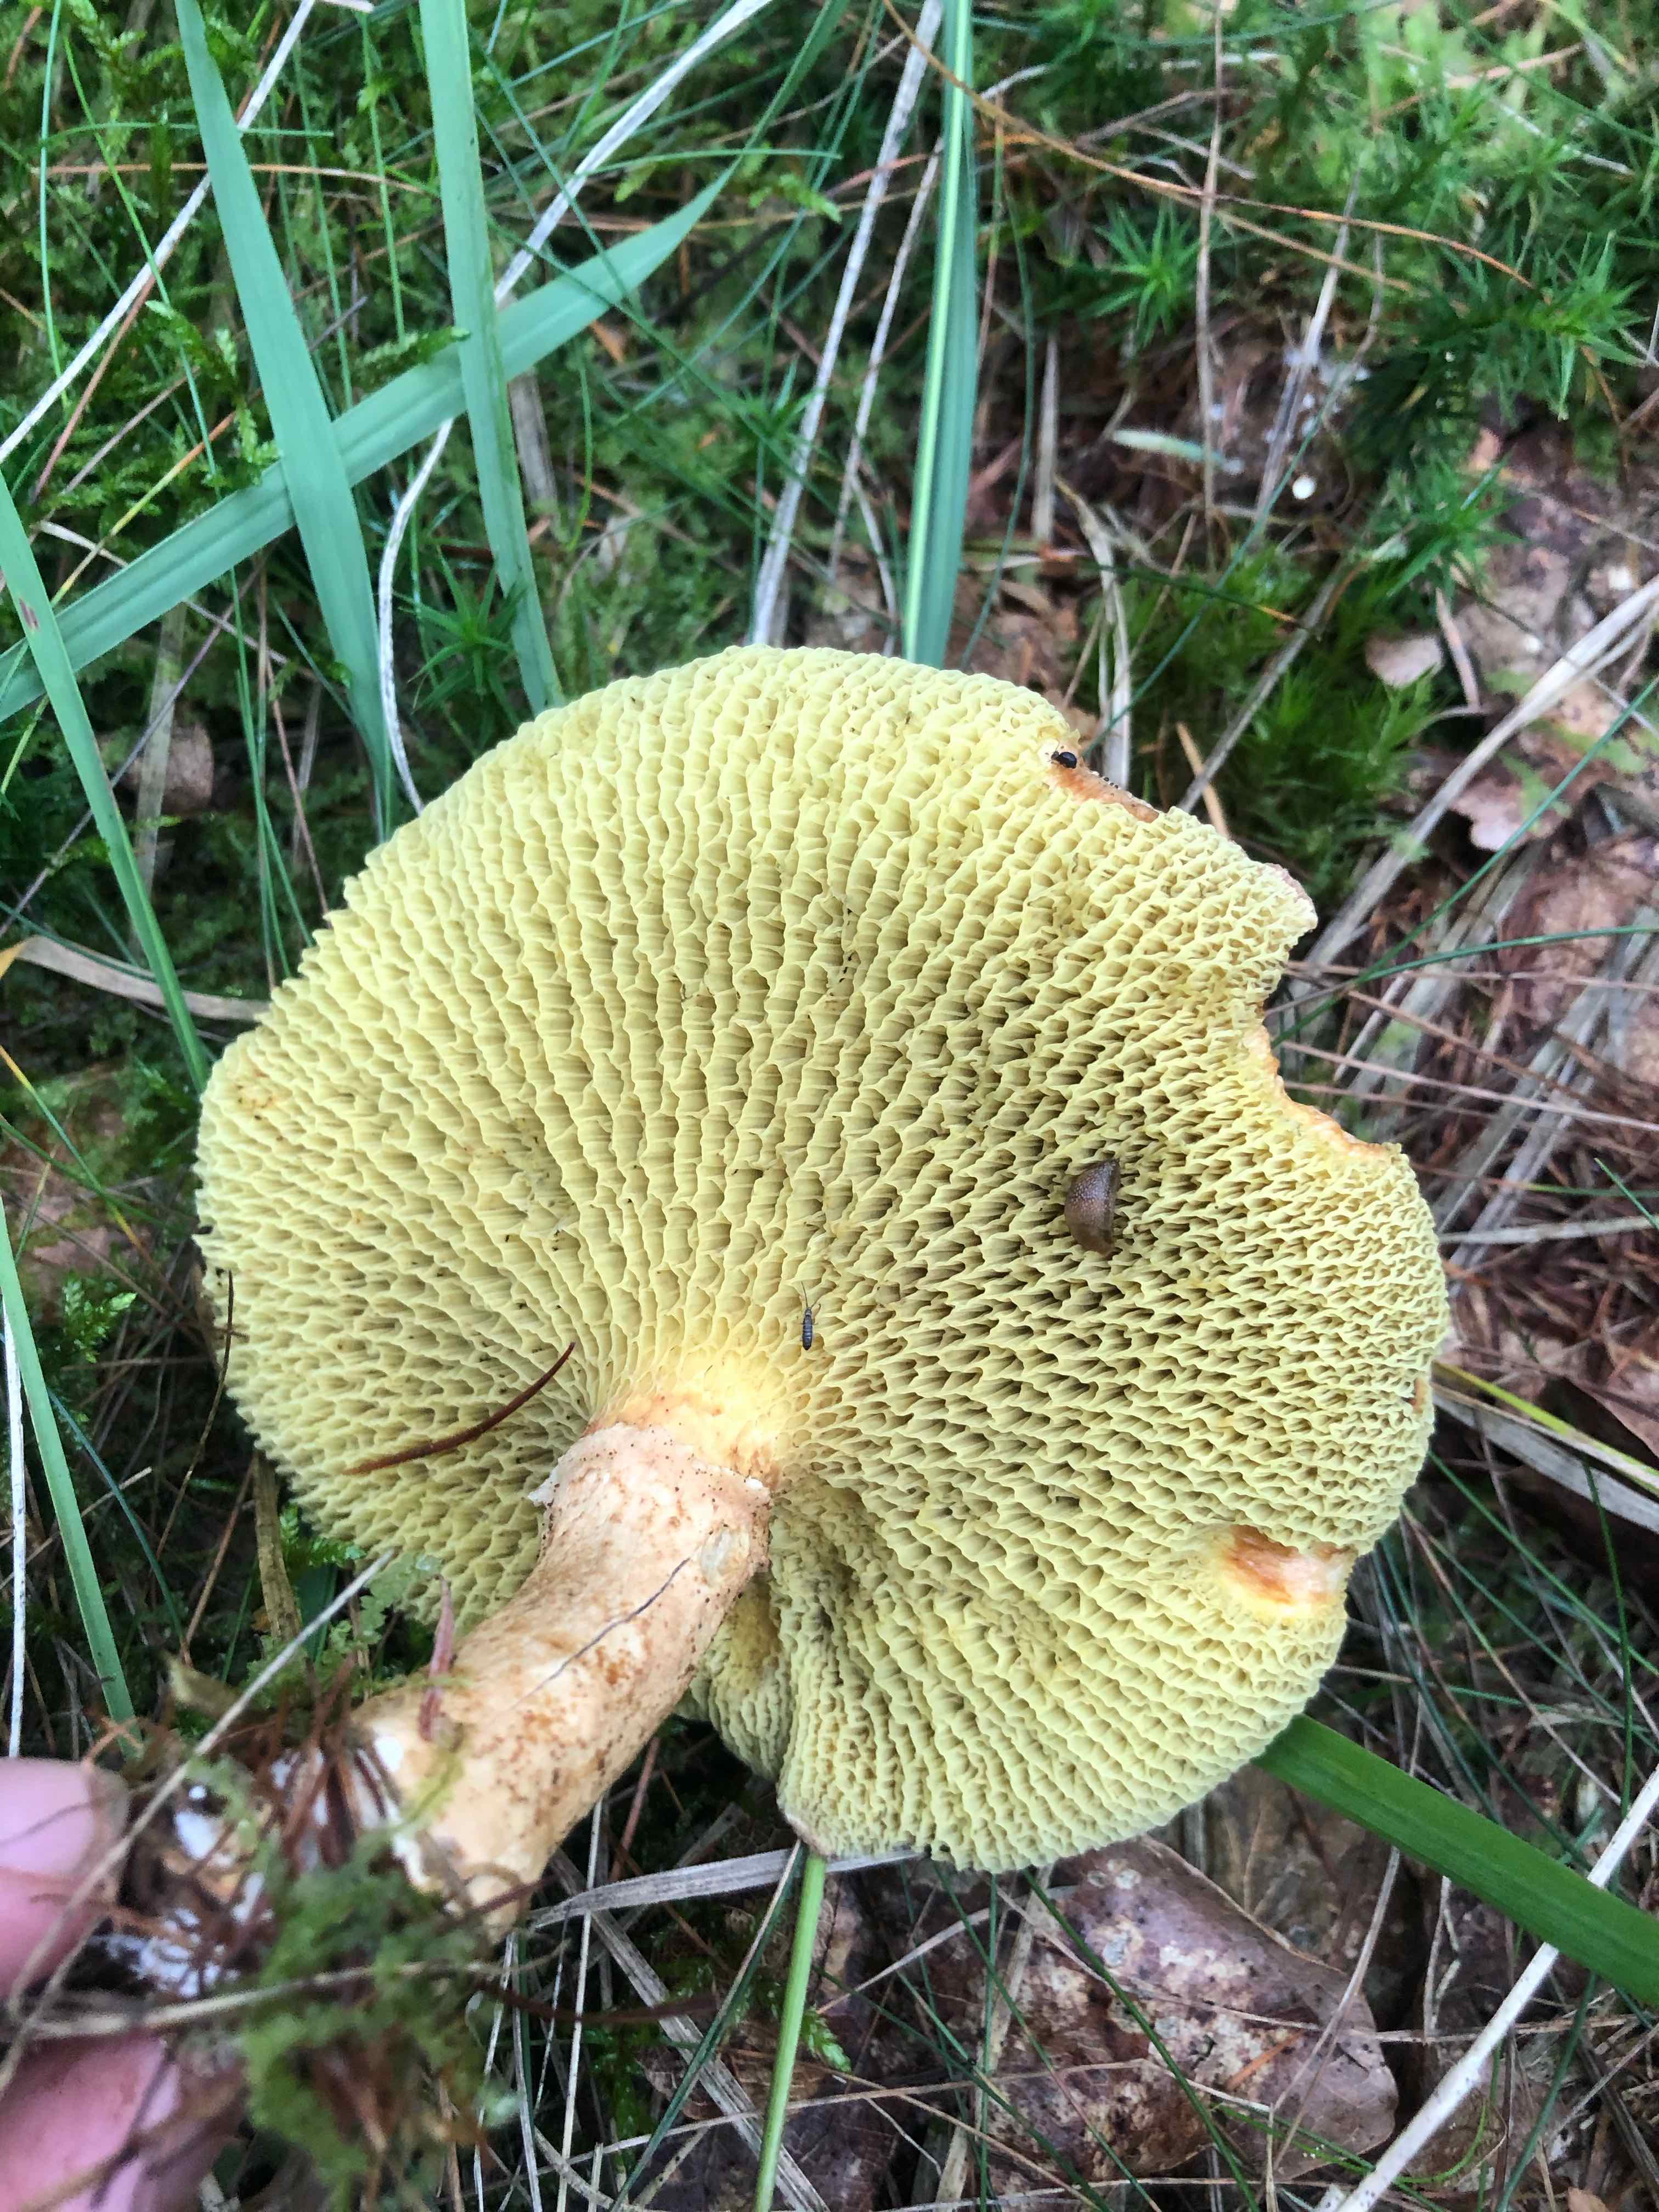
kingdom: Fungi
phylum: Basidiomycota
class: Agaricomycetes
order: Boletales
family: Suillaceae
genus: Suillus
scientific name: Suillus cavipes
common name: hulstokket slimrørhat
